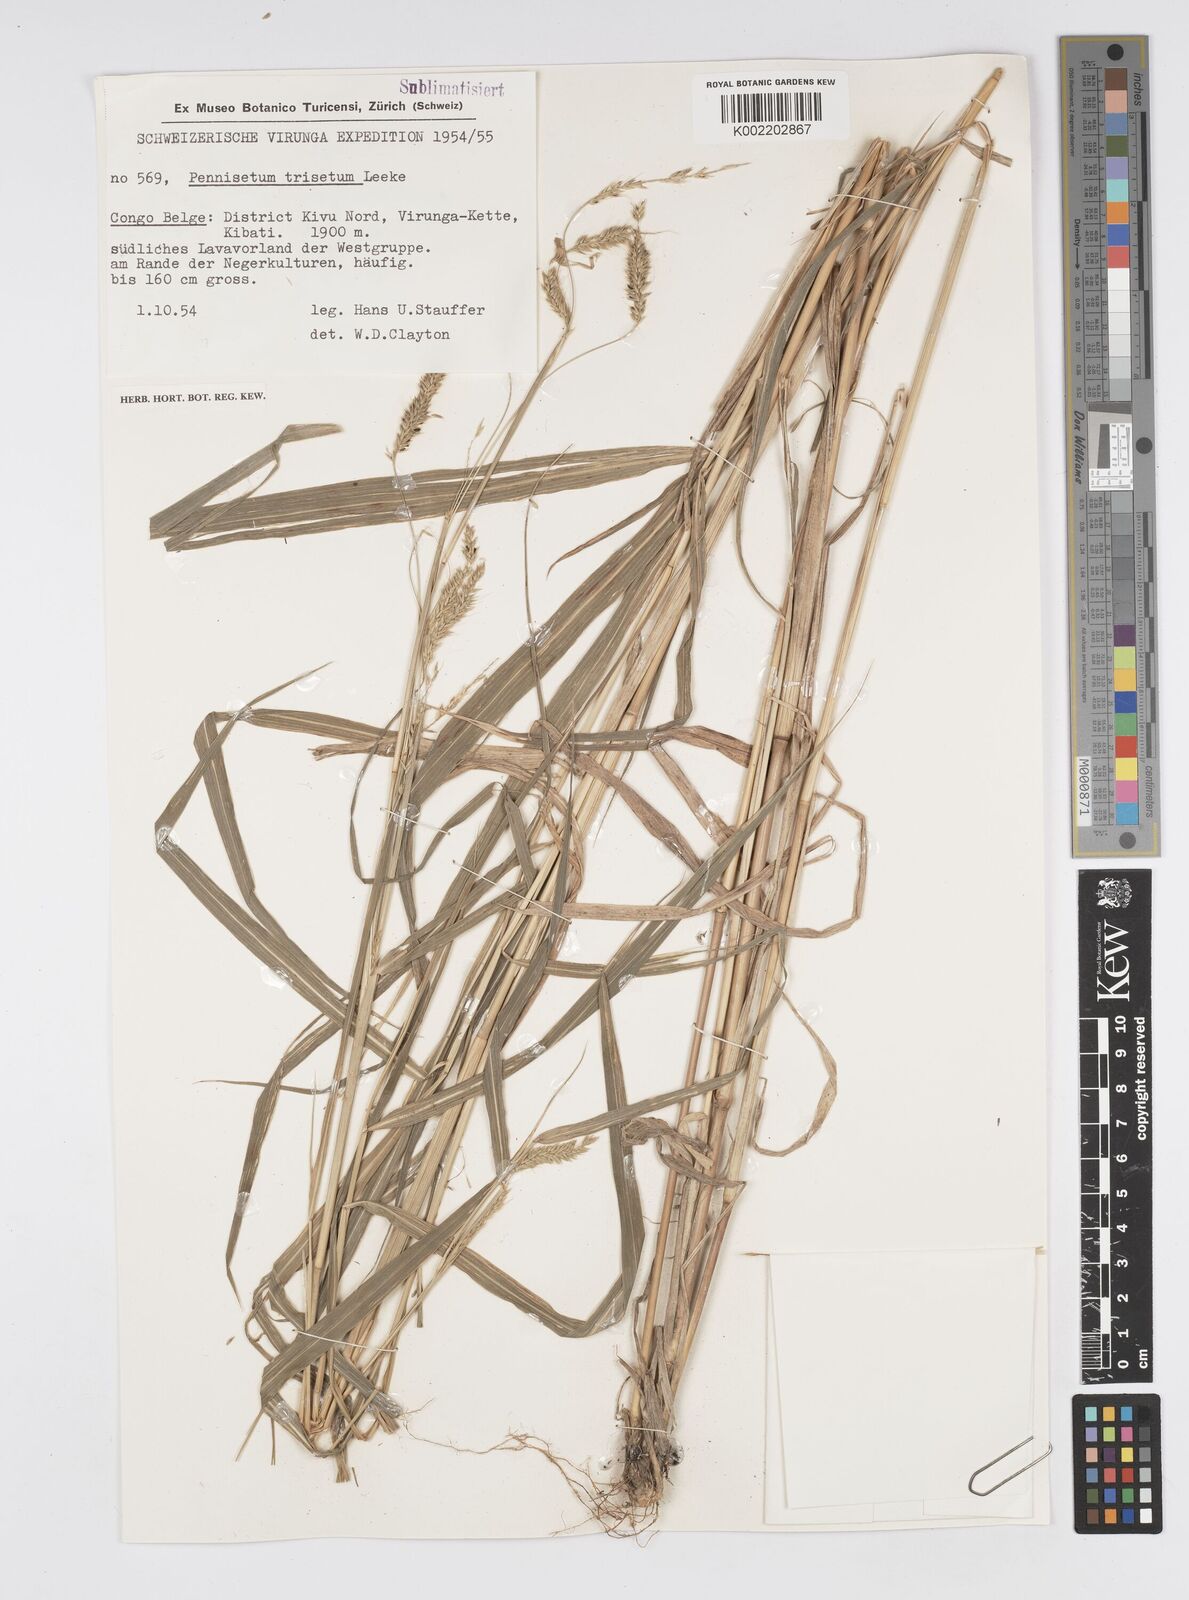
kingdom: Plantae
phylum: Tracheophyta
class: Liliopsida
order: Poales
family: Poaceae
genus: Cenchrus
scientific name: Cenchrus trisetus
